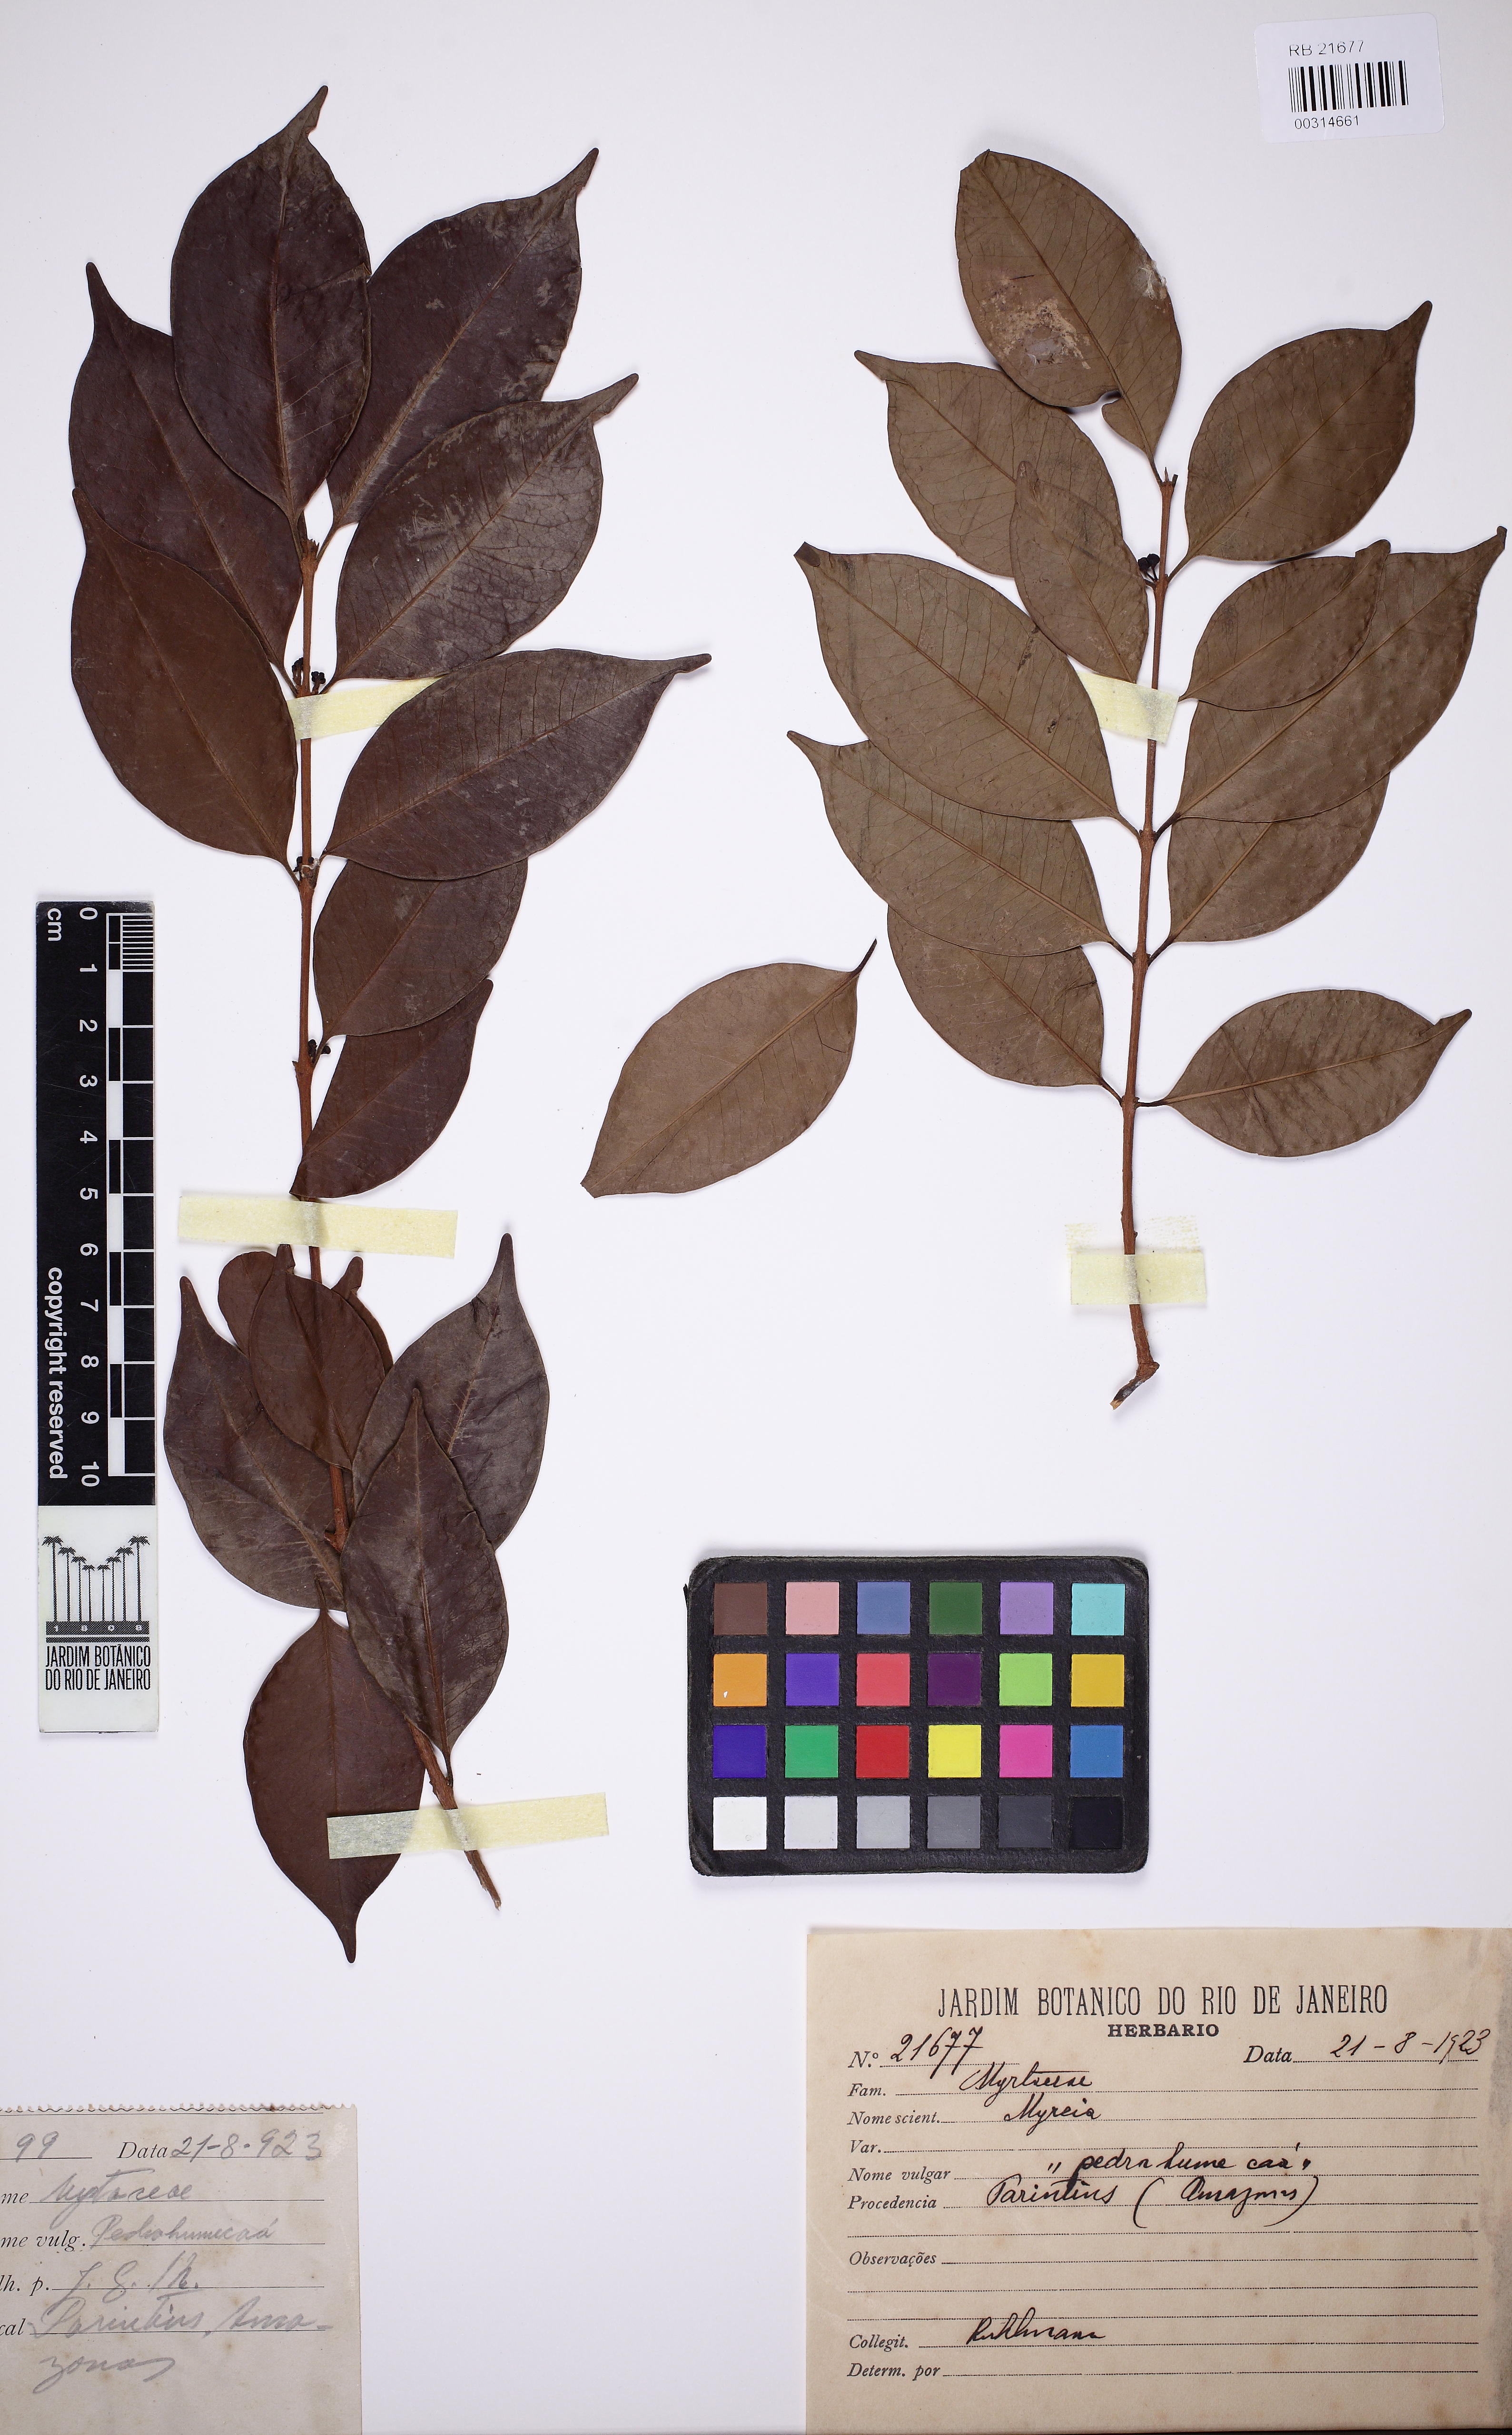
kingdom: Plantae
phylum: Tracheophyta
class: Magnoliopsida
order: Myrtales
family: Myrtaceae
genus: Eugenia
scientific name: Eugenia punicifolia
